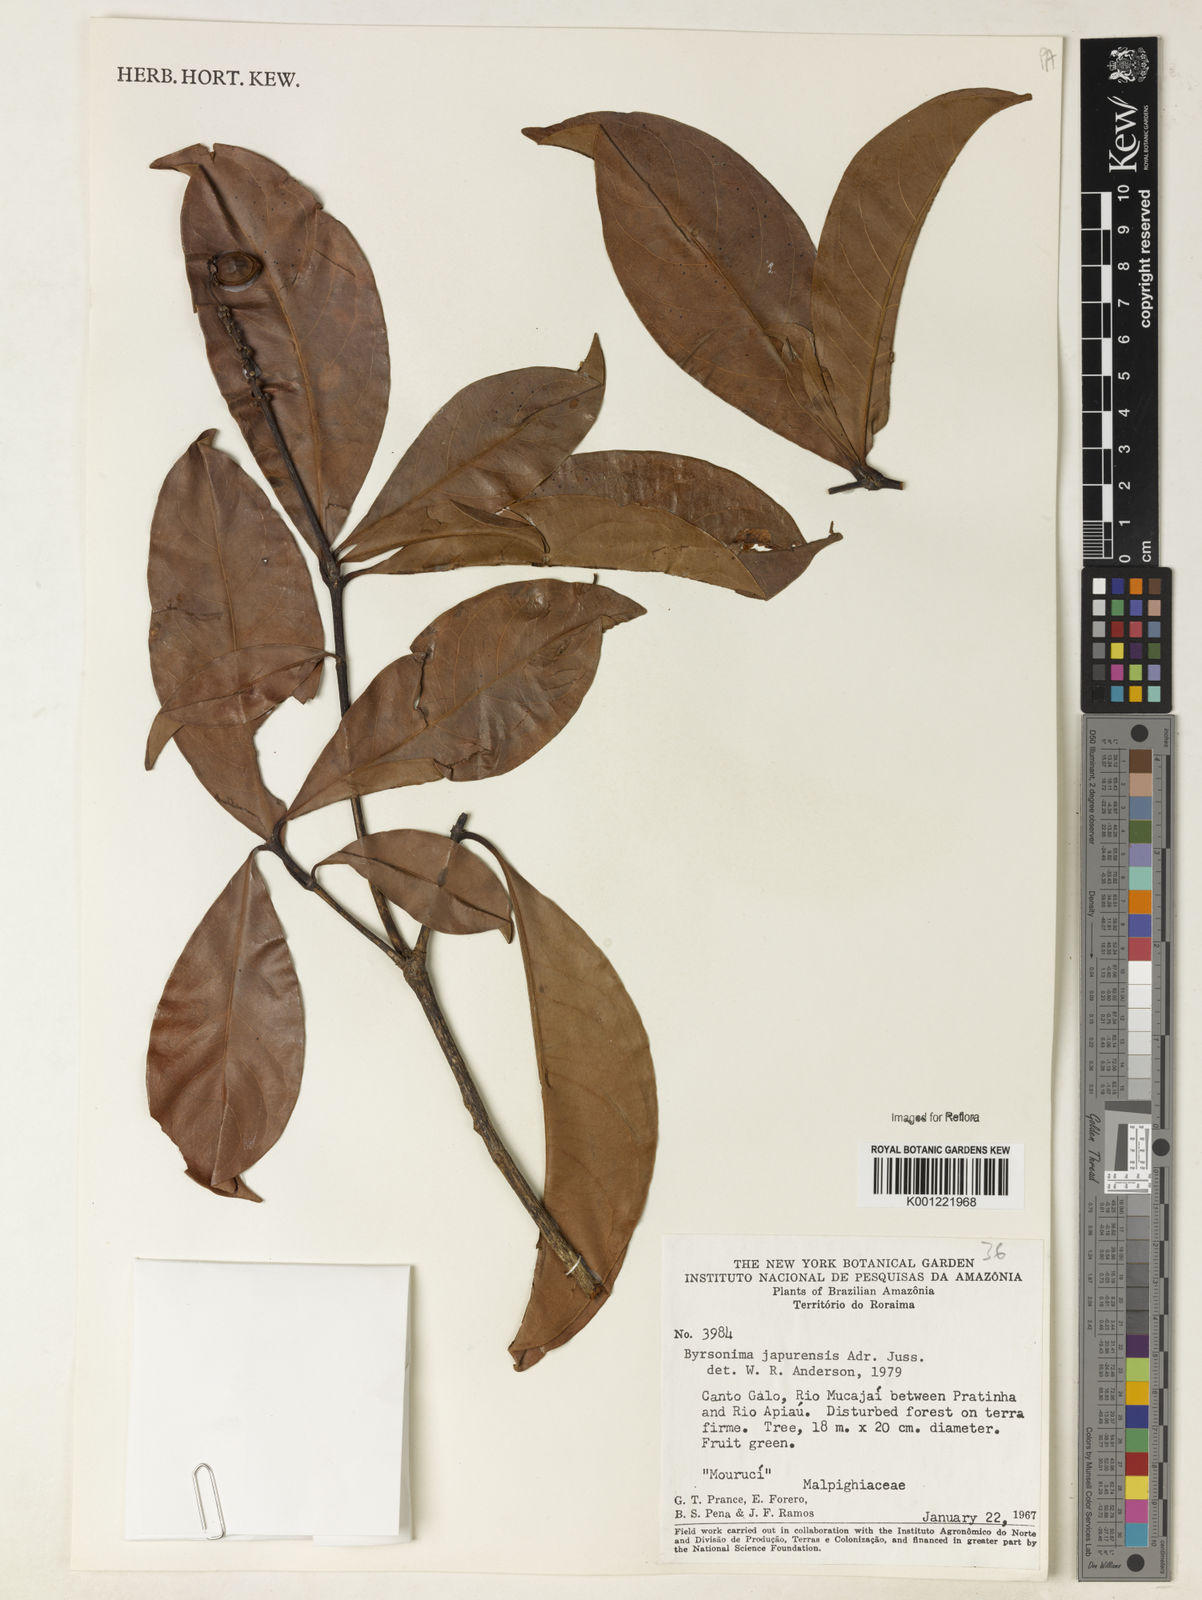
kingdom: Plantae
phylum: Tracheophyta
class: Magnoliopsida
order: Malpighiales
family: Malpighiaceae
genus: Byrsonima
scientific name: Byrsonima japurensis
